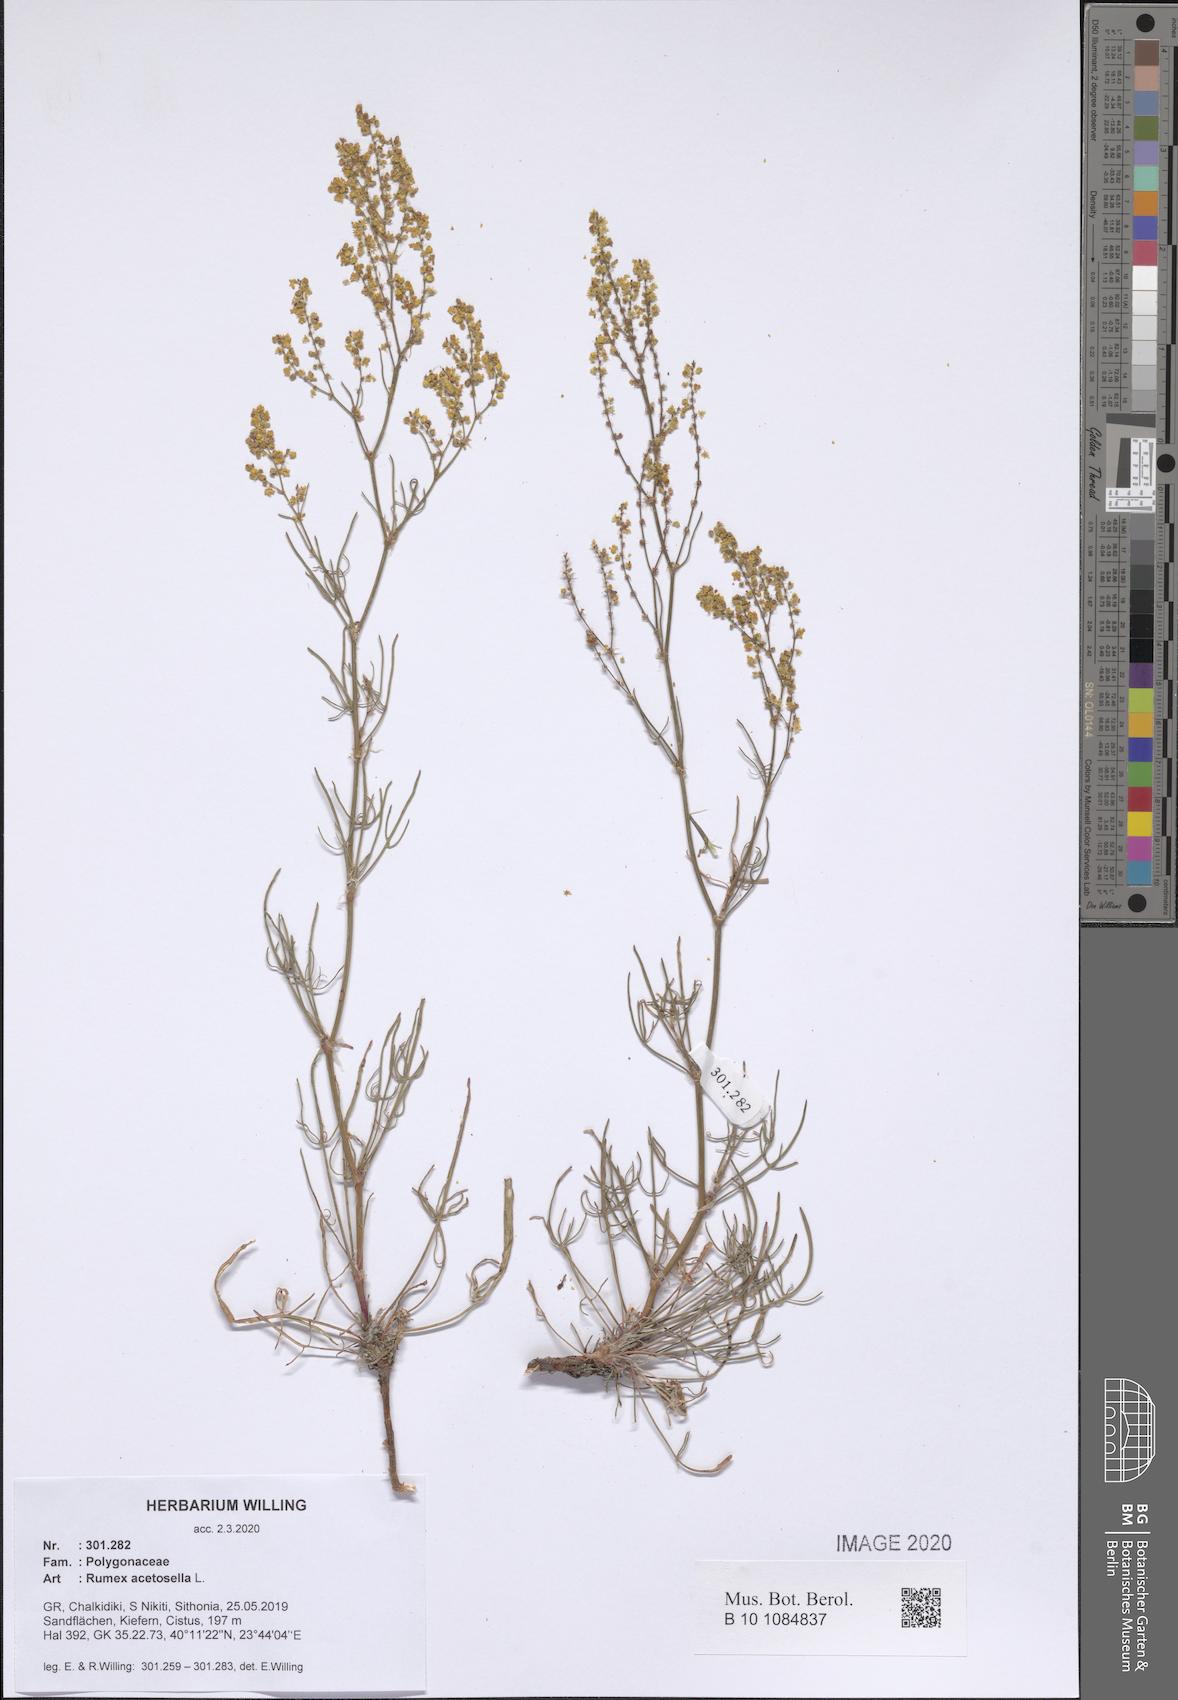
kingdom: Plantae
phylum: Tracheophyta
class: Magnoliopsida
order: Caryophyllales
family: Polygonaceae
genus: Rumex
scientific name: Rumex acetosella
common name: Common sheep sorrel
